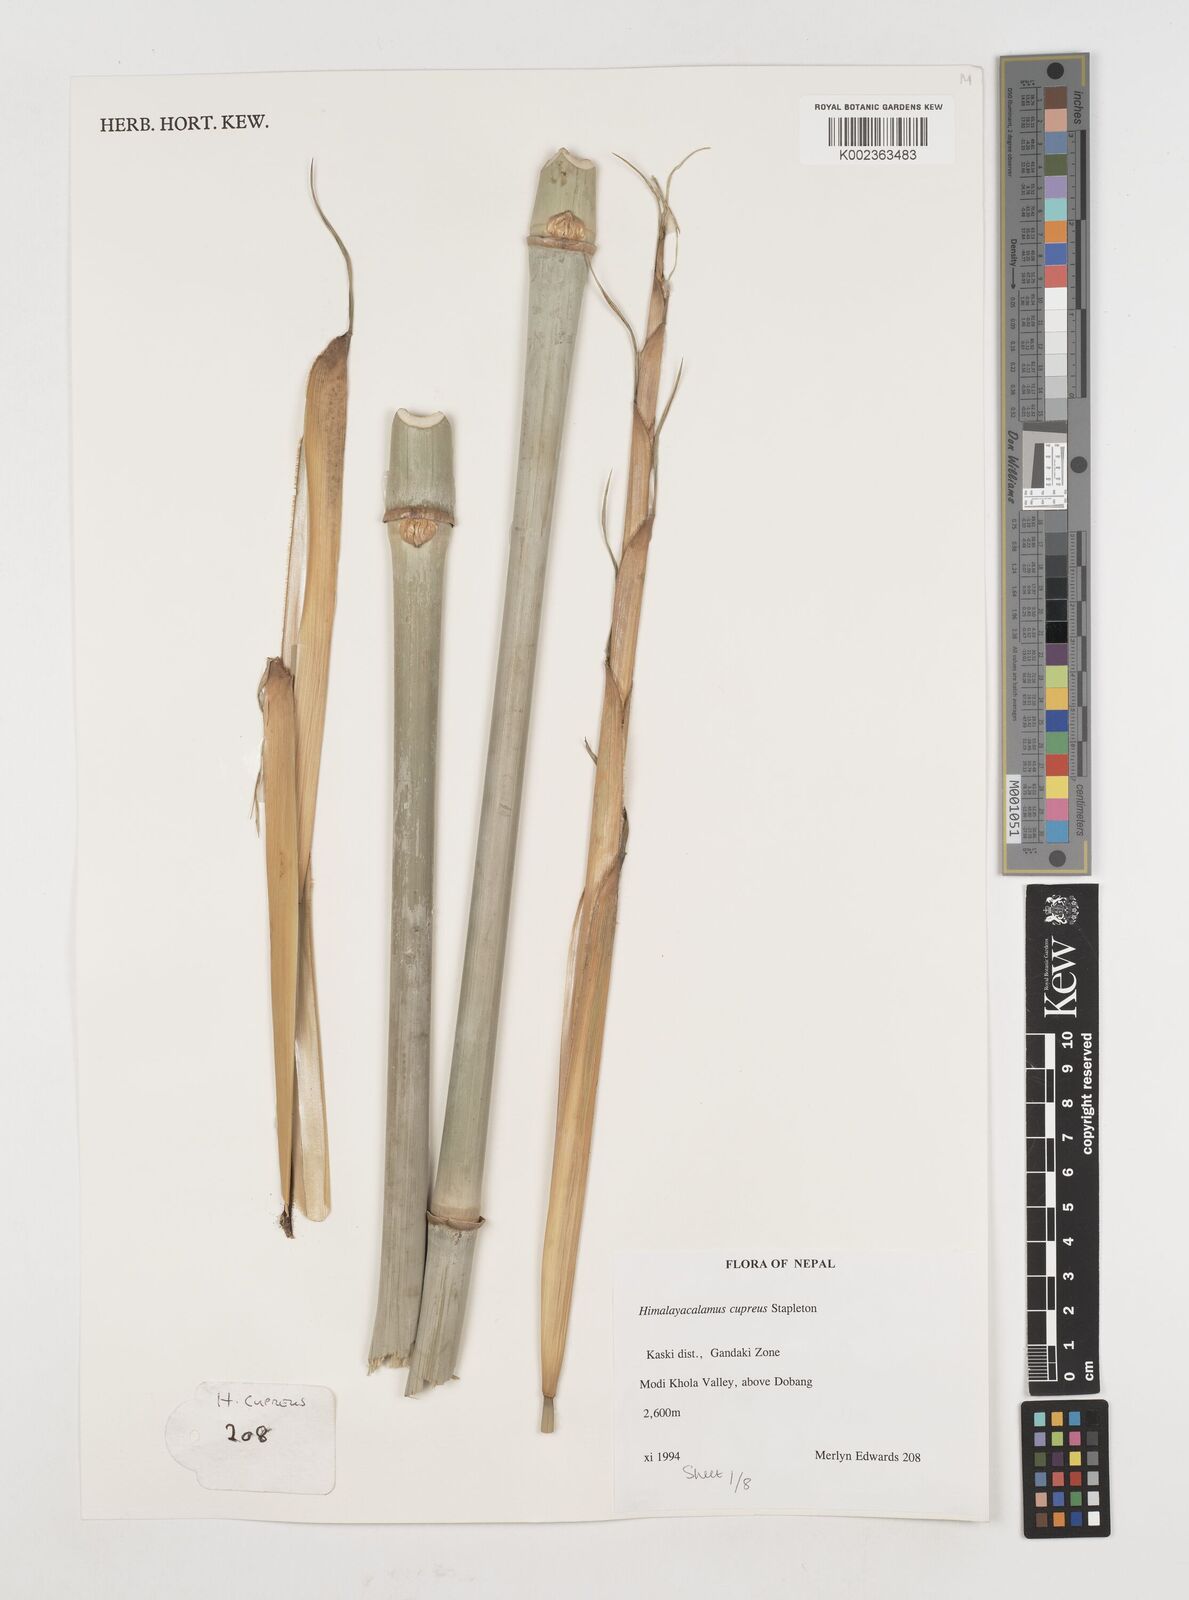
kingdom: Plantae
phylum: Tracheophyta
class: Liliopsida
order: Poales
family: Poaceae
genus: Himalayacalamus
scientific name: Himalayacalamus cupreus
